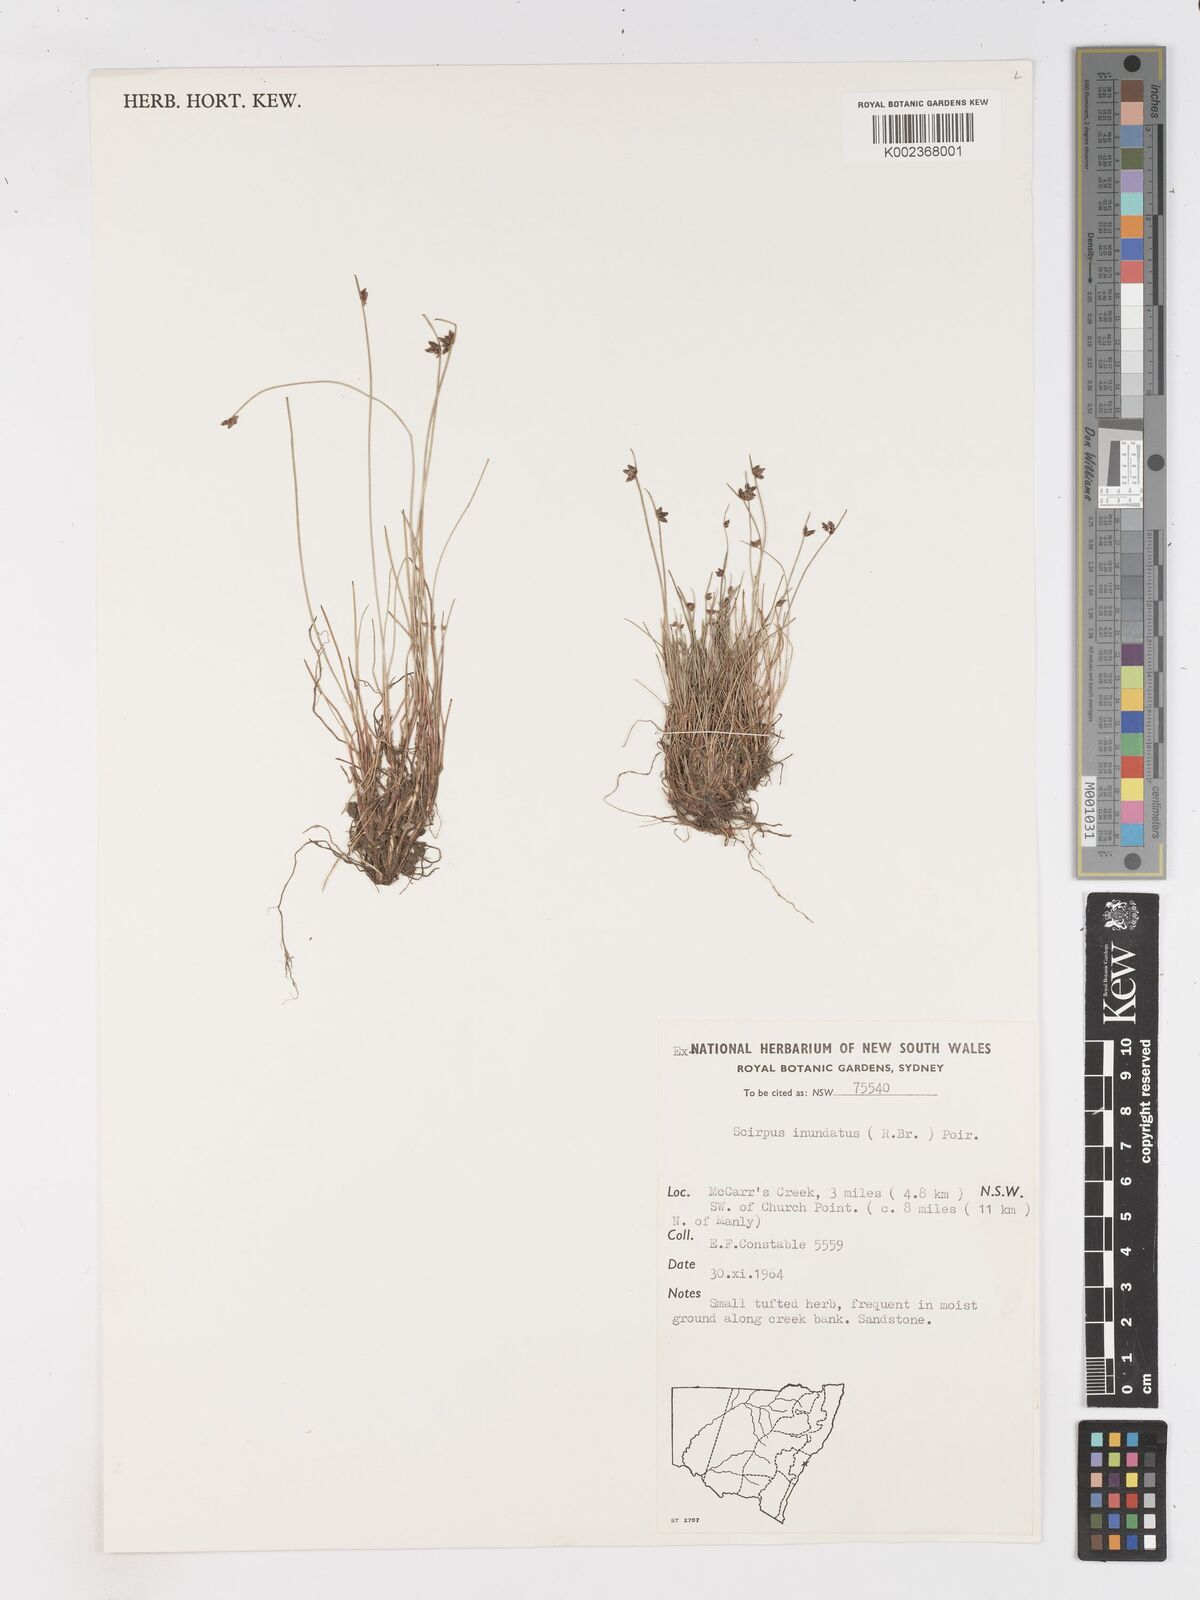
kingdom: Plantae
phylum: Tracheophyta
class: Liliopsida
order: Poales
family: Cyperaceae
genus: Isolepis
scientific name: Isolepis inundata
